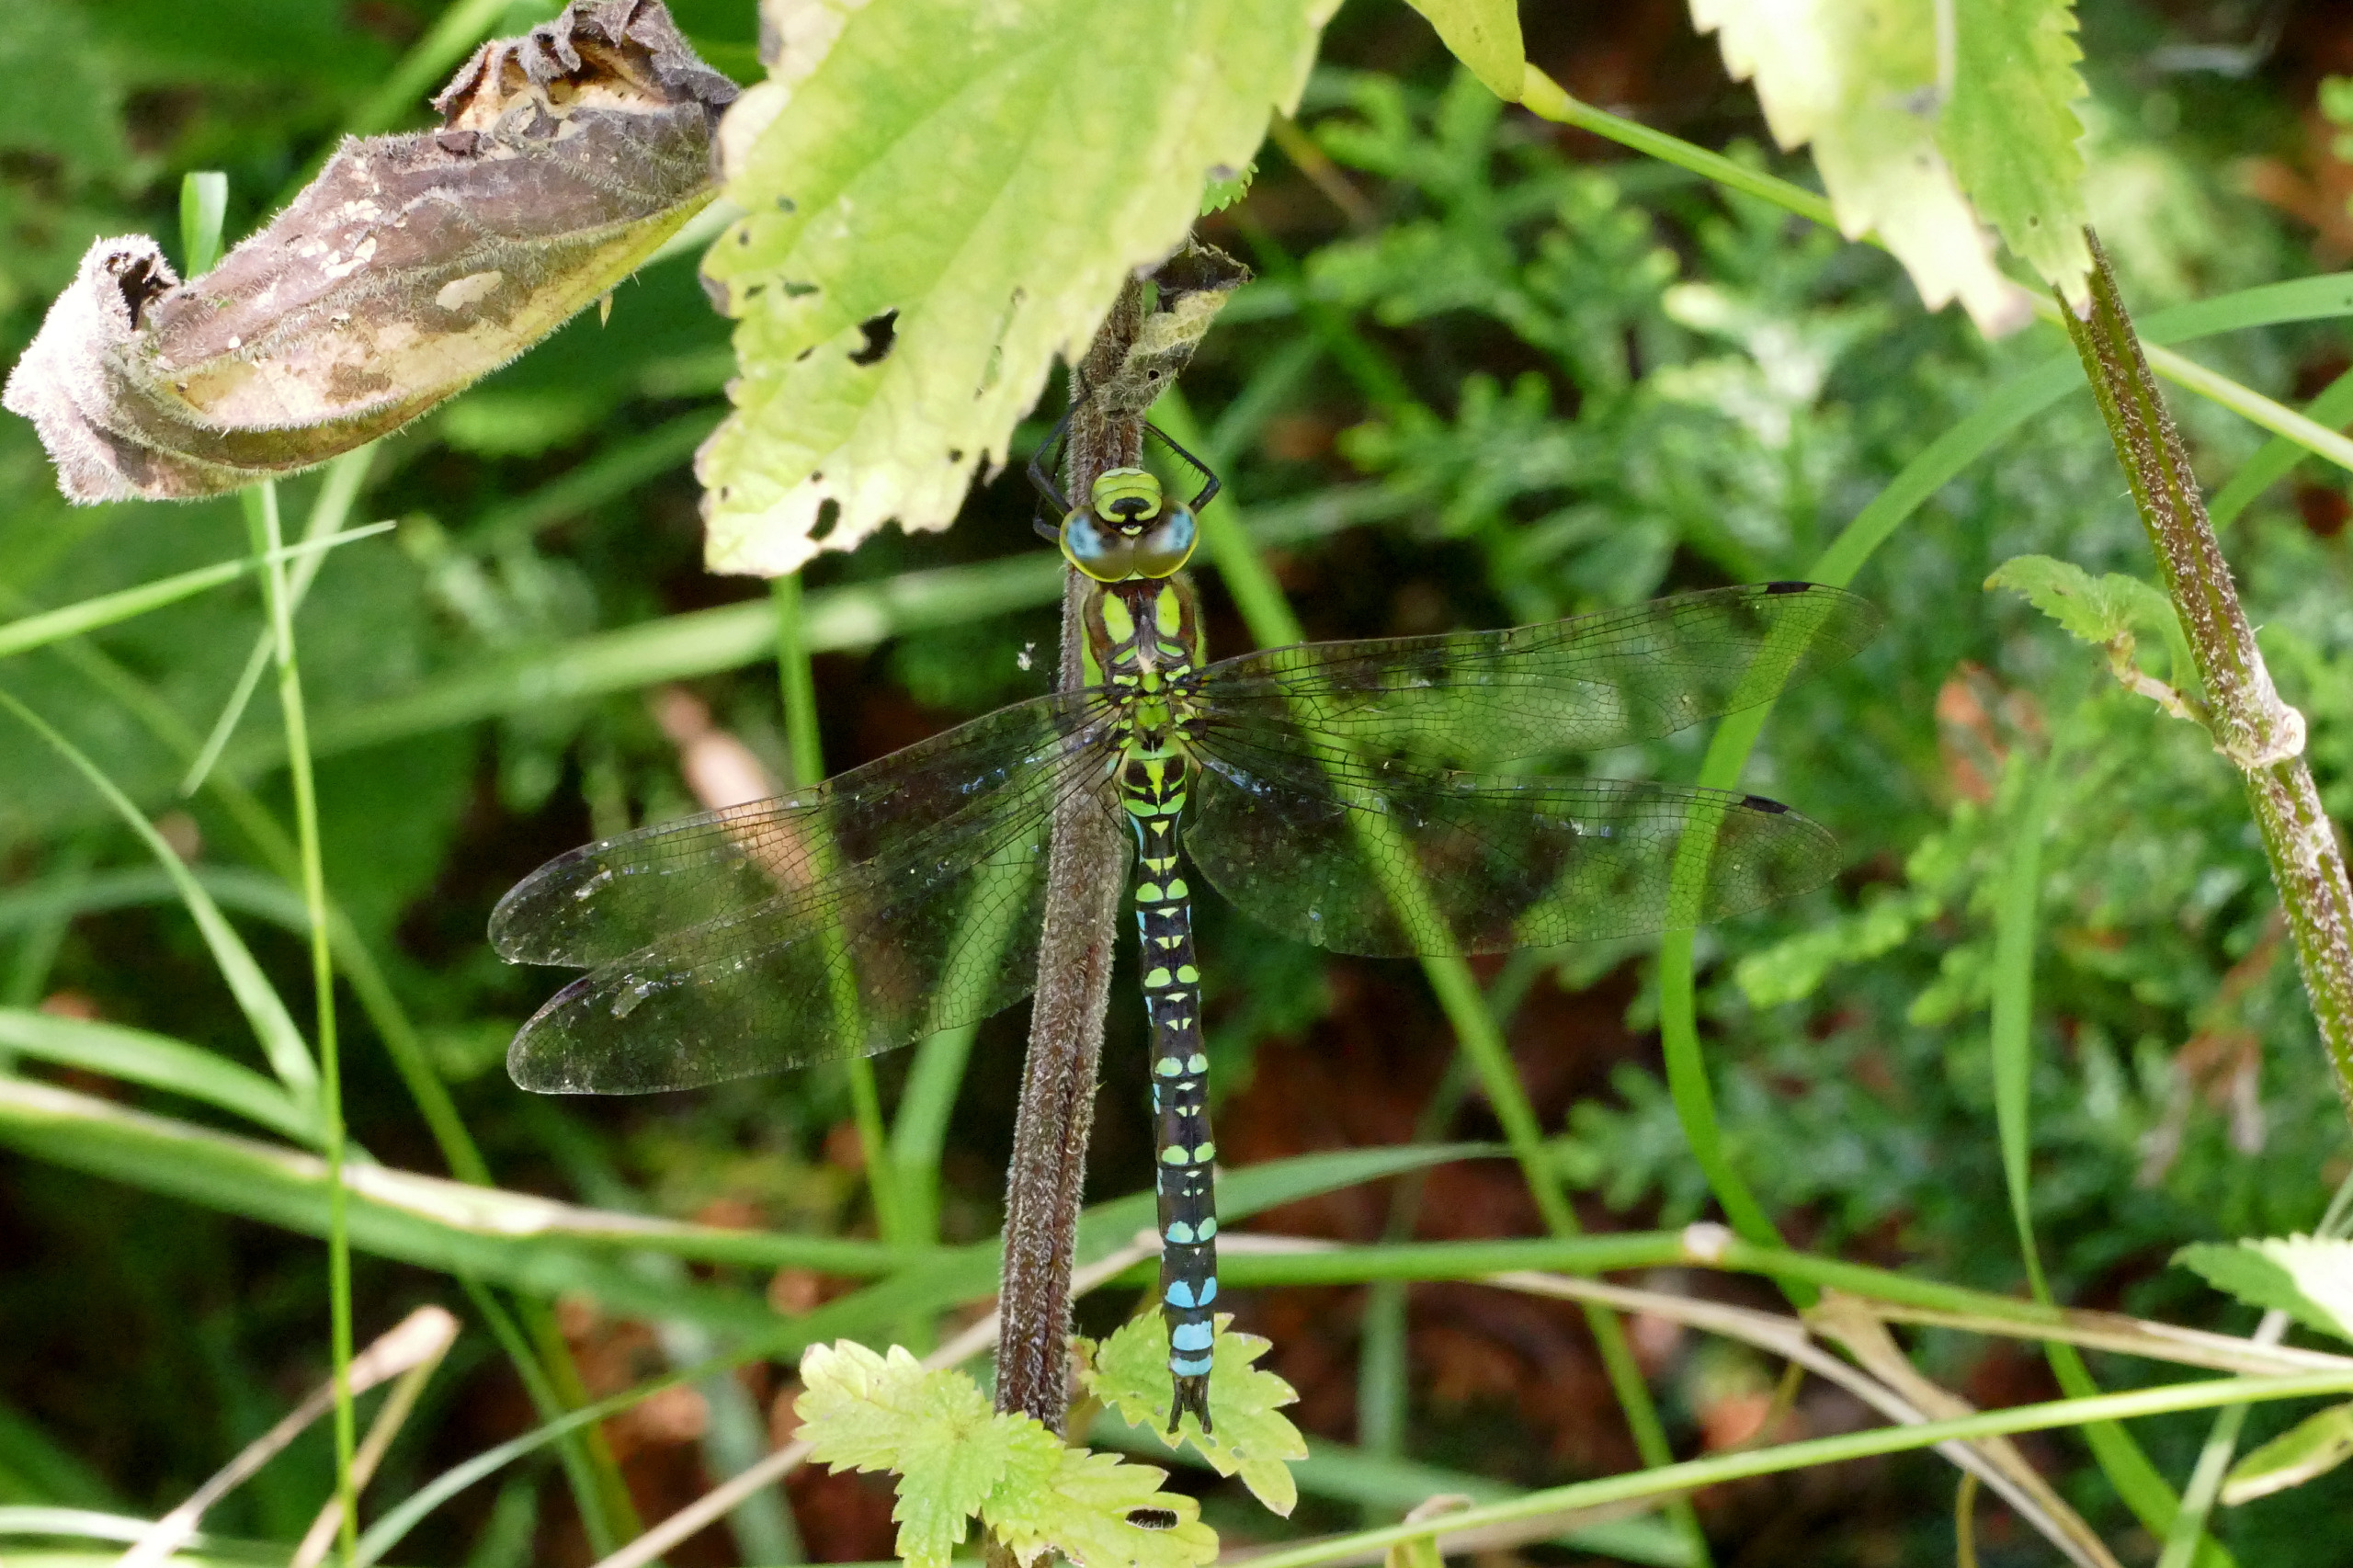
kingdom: Animalia
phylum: Arthropoda
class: Insecta
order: Odonata
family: Aeshnidae
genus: Aeshna
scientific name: Aeshna cyanea
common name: Blå mosaikguldsmed
